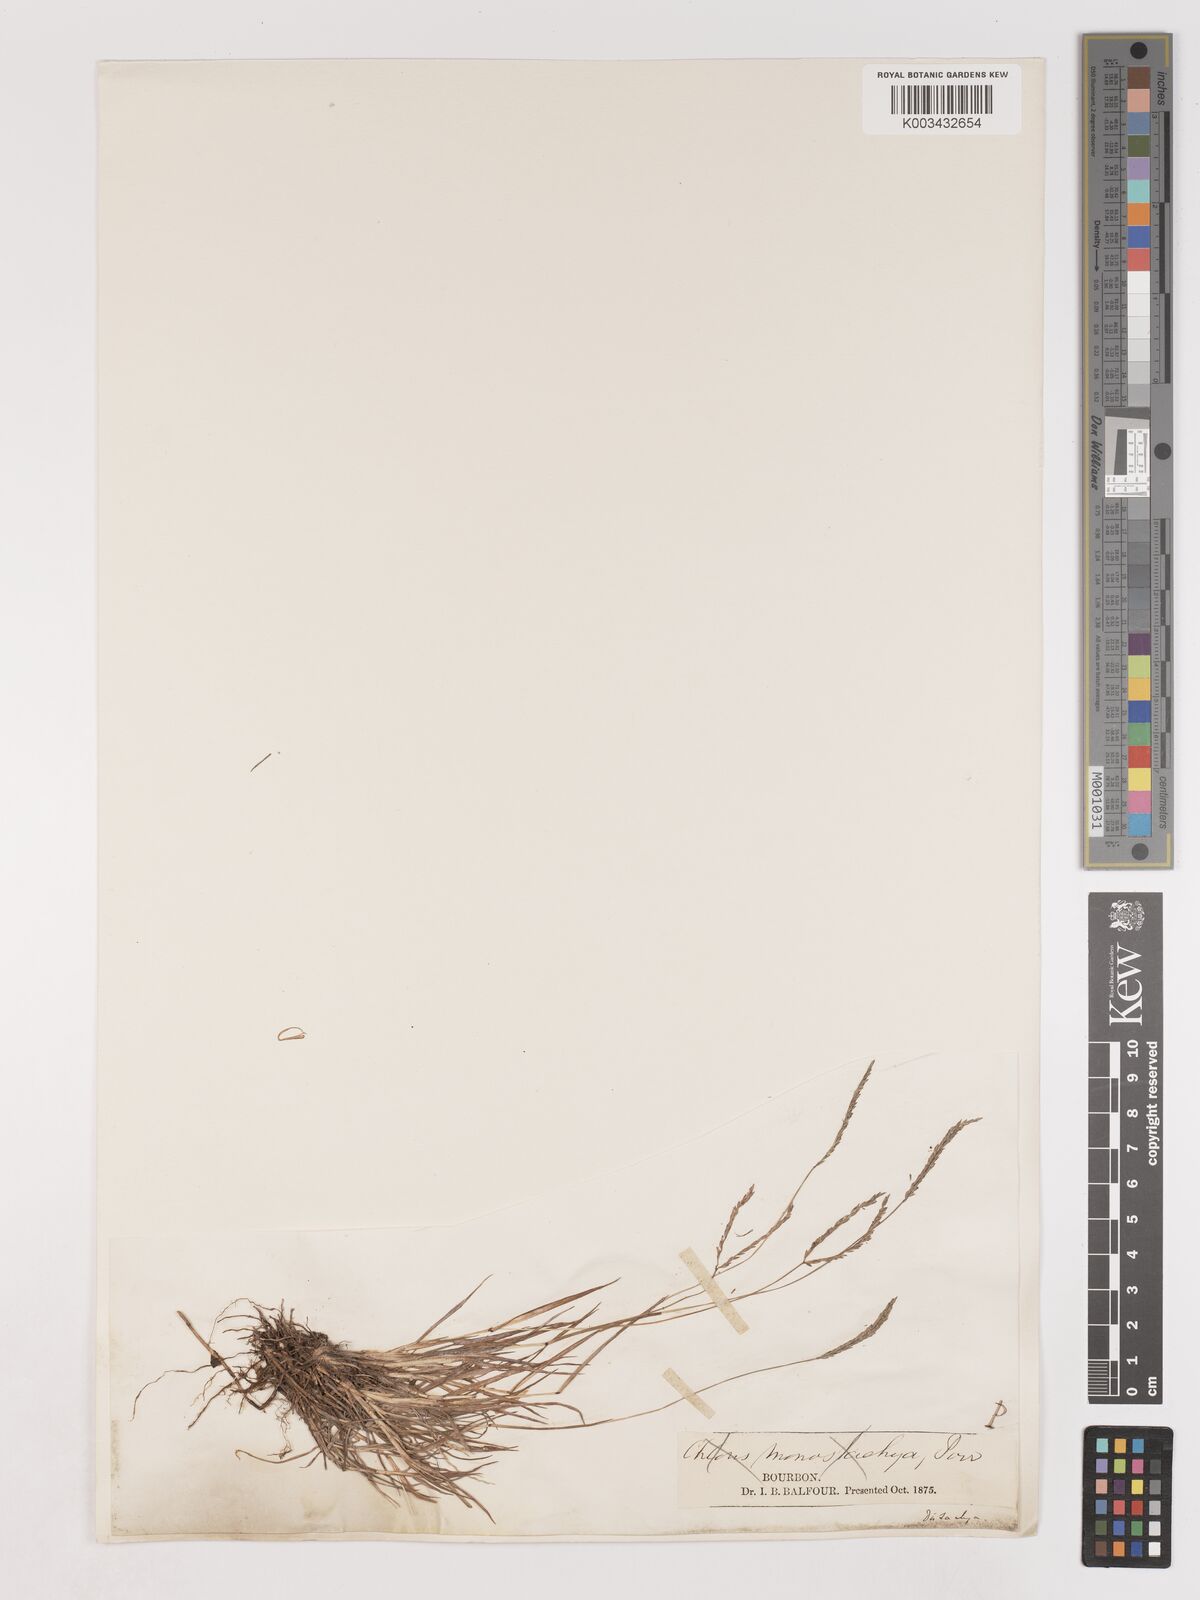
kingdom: Plantae
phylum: Tracheophyta
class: Liliopsida
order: Poales
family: Poaceae
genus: Digitaria
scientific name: Digitaria didactyla
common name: Blue couch
